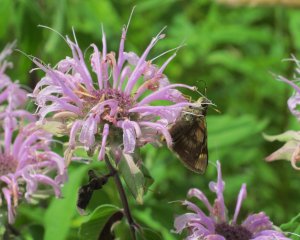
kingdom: Animalia
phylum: Arthropoda
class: Insecta
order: Lepidoptera
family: Hesperiidae
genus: Polites
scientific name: Polites egeremet
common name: Northern Broken-Dash
